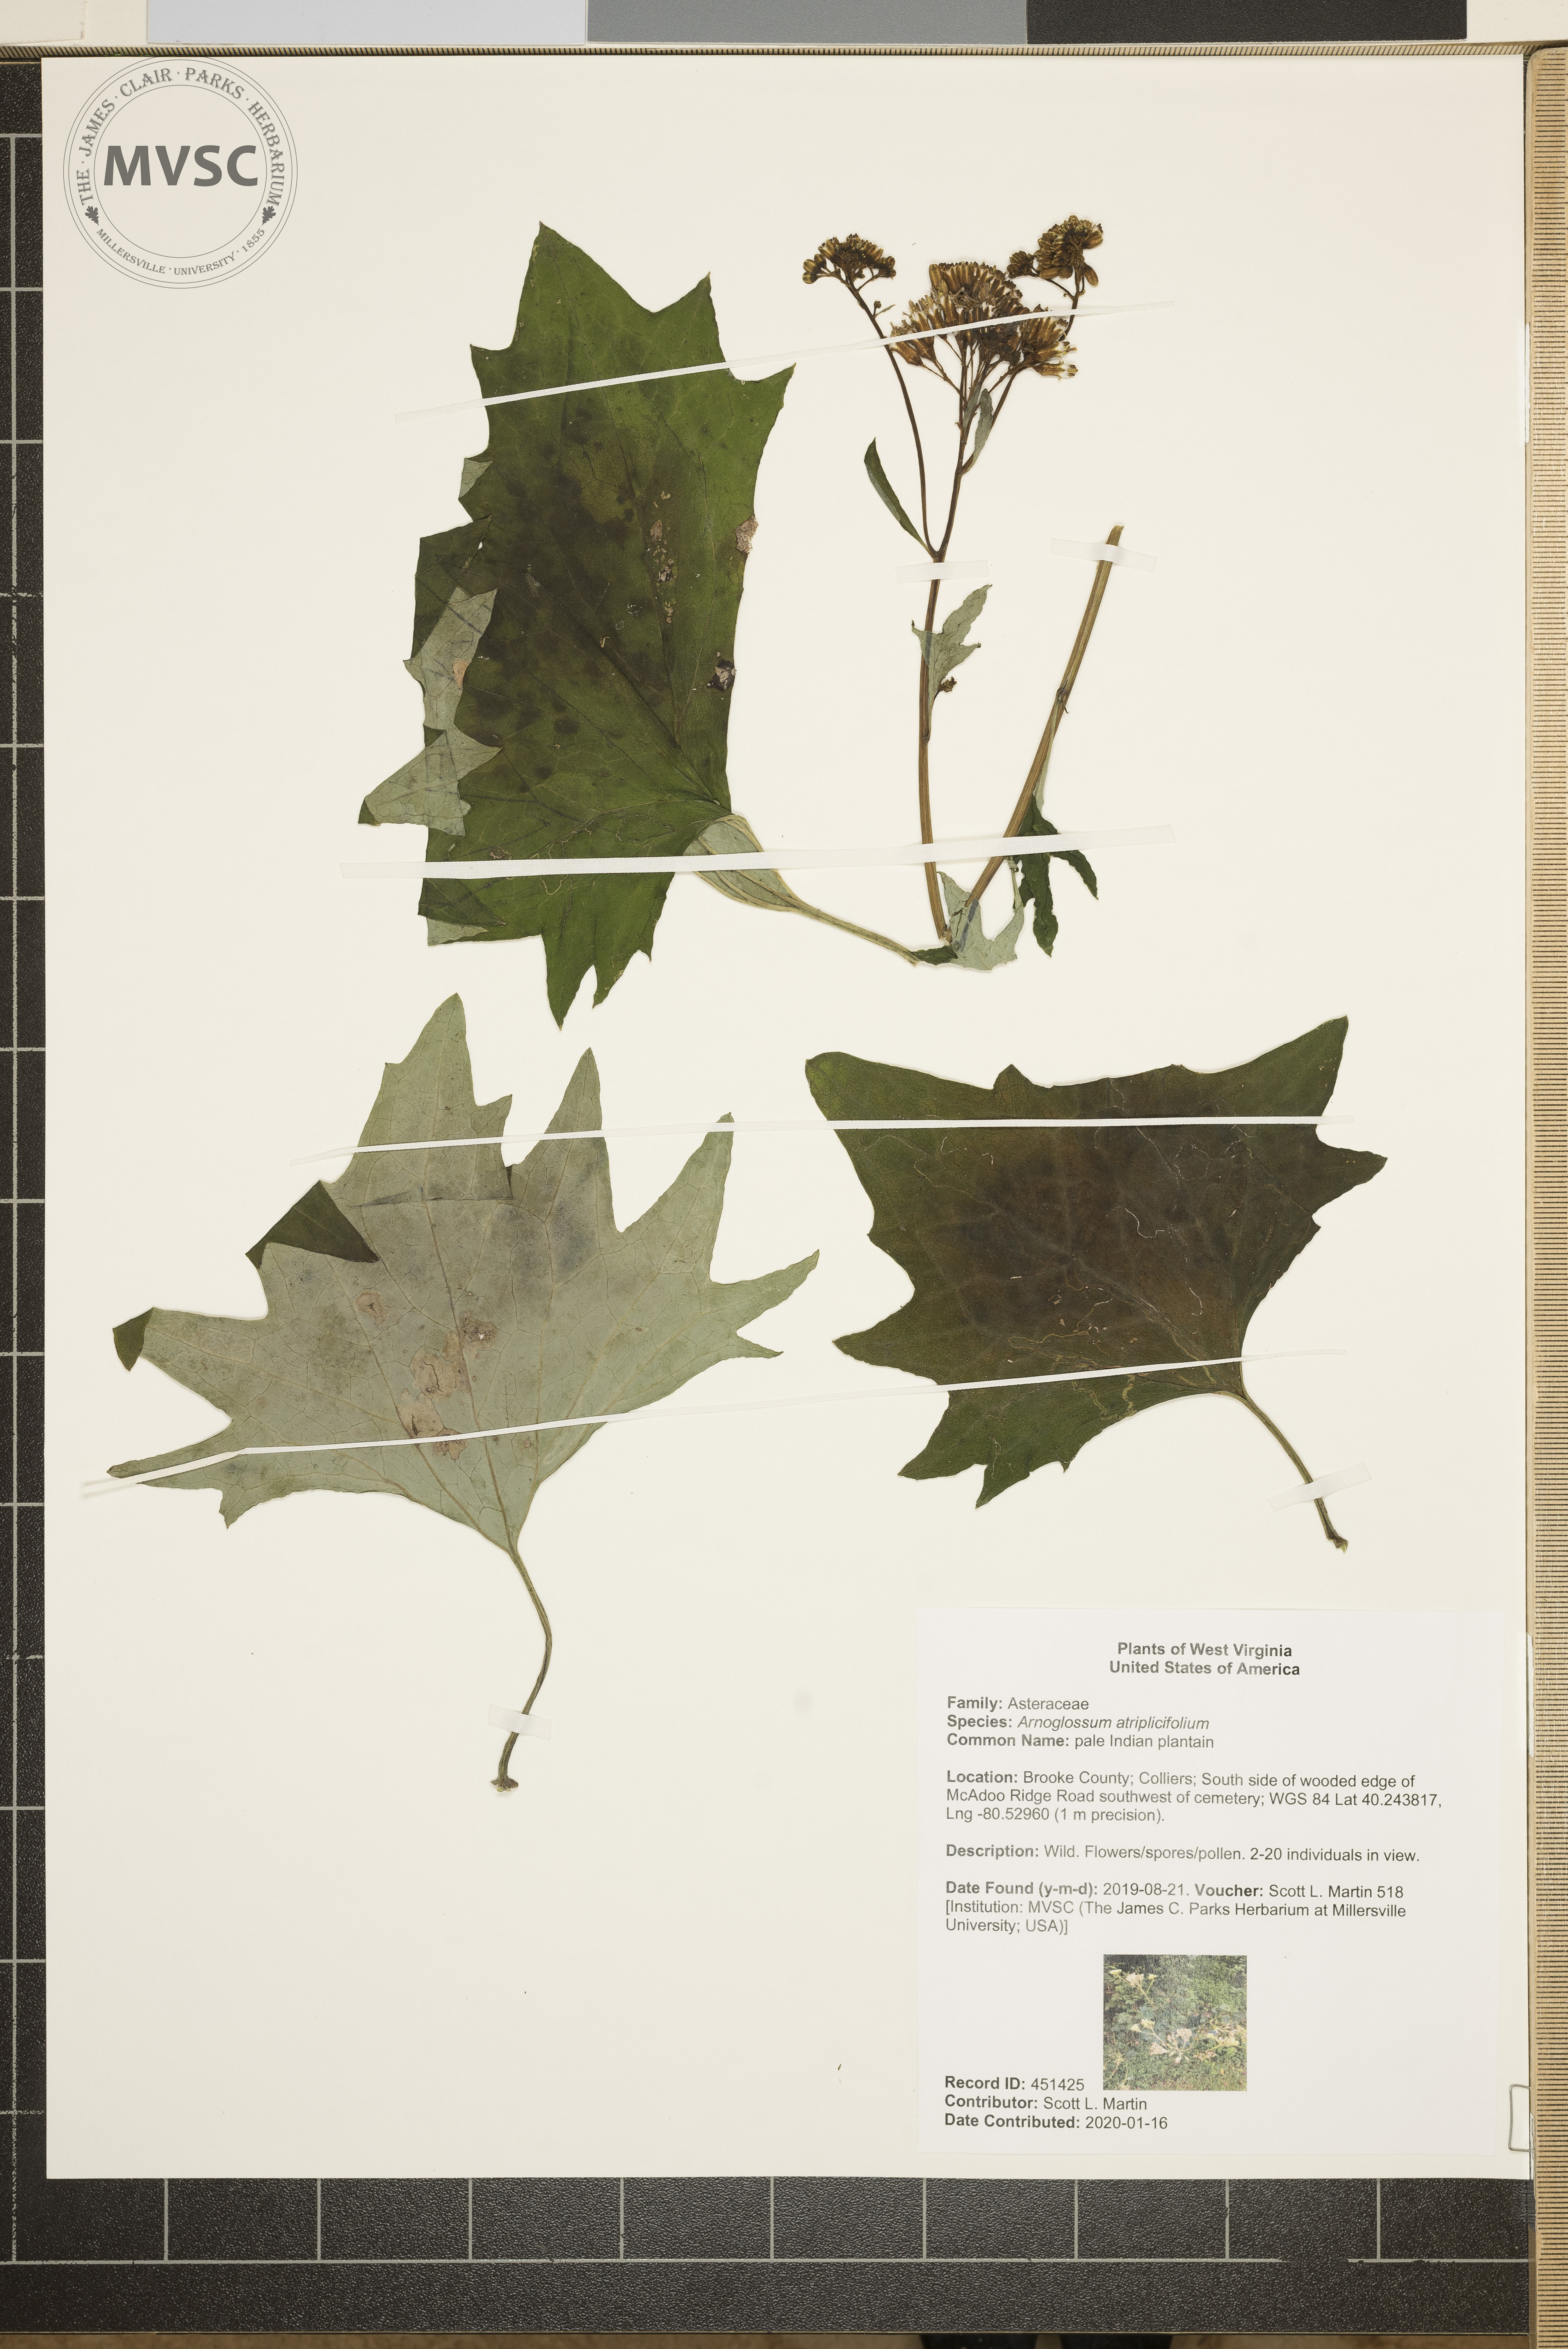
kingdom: Plantae
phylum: Tracheophyta
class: Magnoliopsida
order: Asterales
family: Asteraceae
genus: Arnoglossum
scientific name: Arnoglossum atriplicifolium
